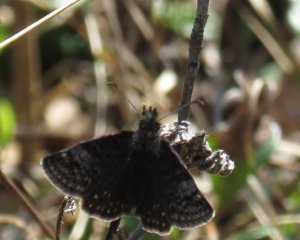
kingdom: Animalia
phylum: Arthropoda
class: Insecta
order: Lepidoptera
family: Hesperiidae
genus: Erynnis
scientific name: Erynnis icelus
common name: Dreamy Duskywing
